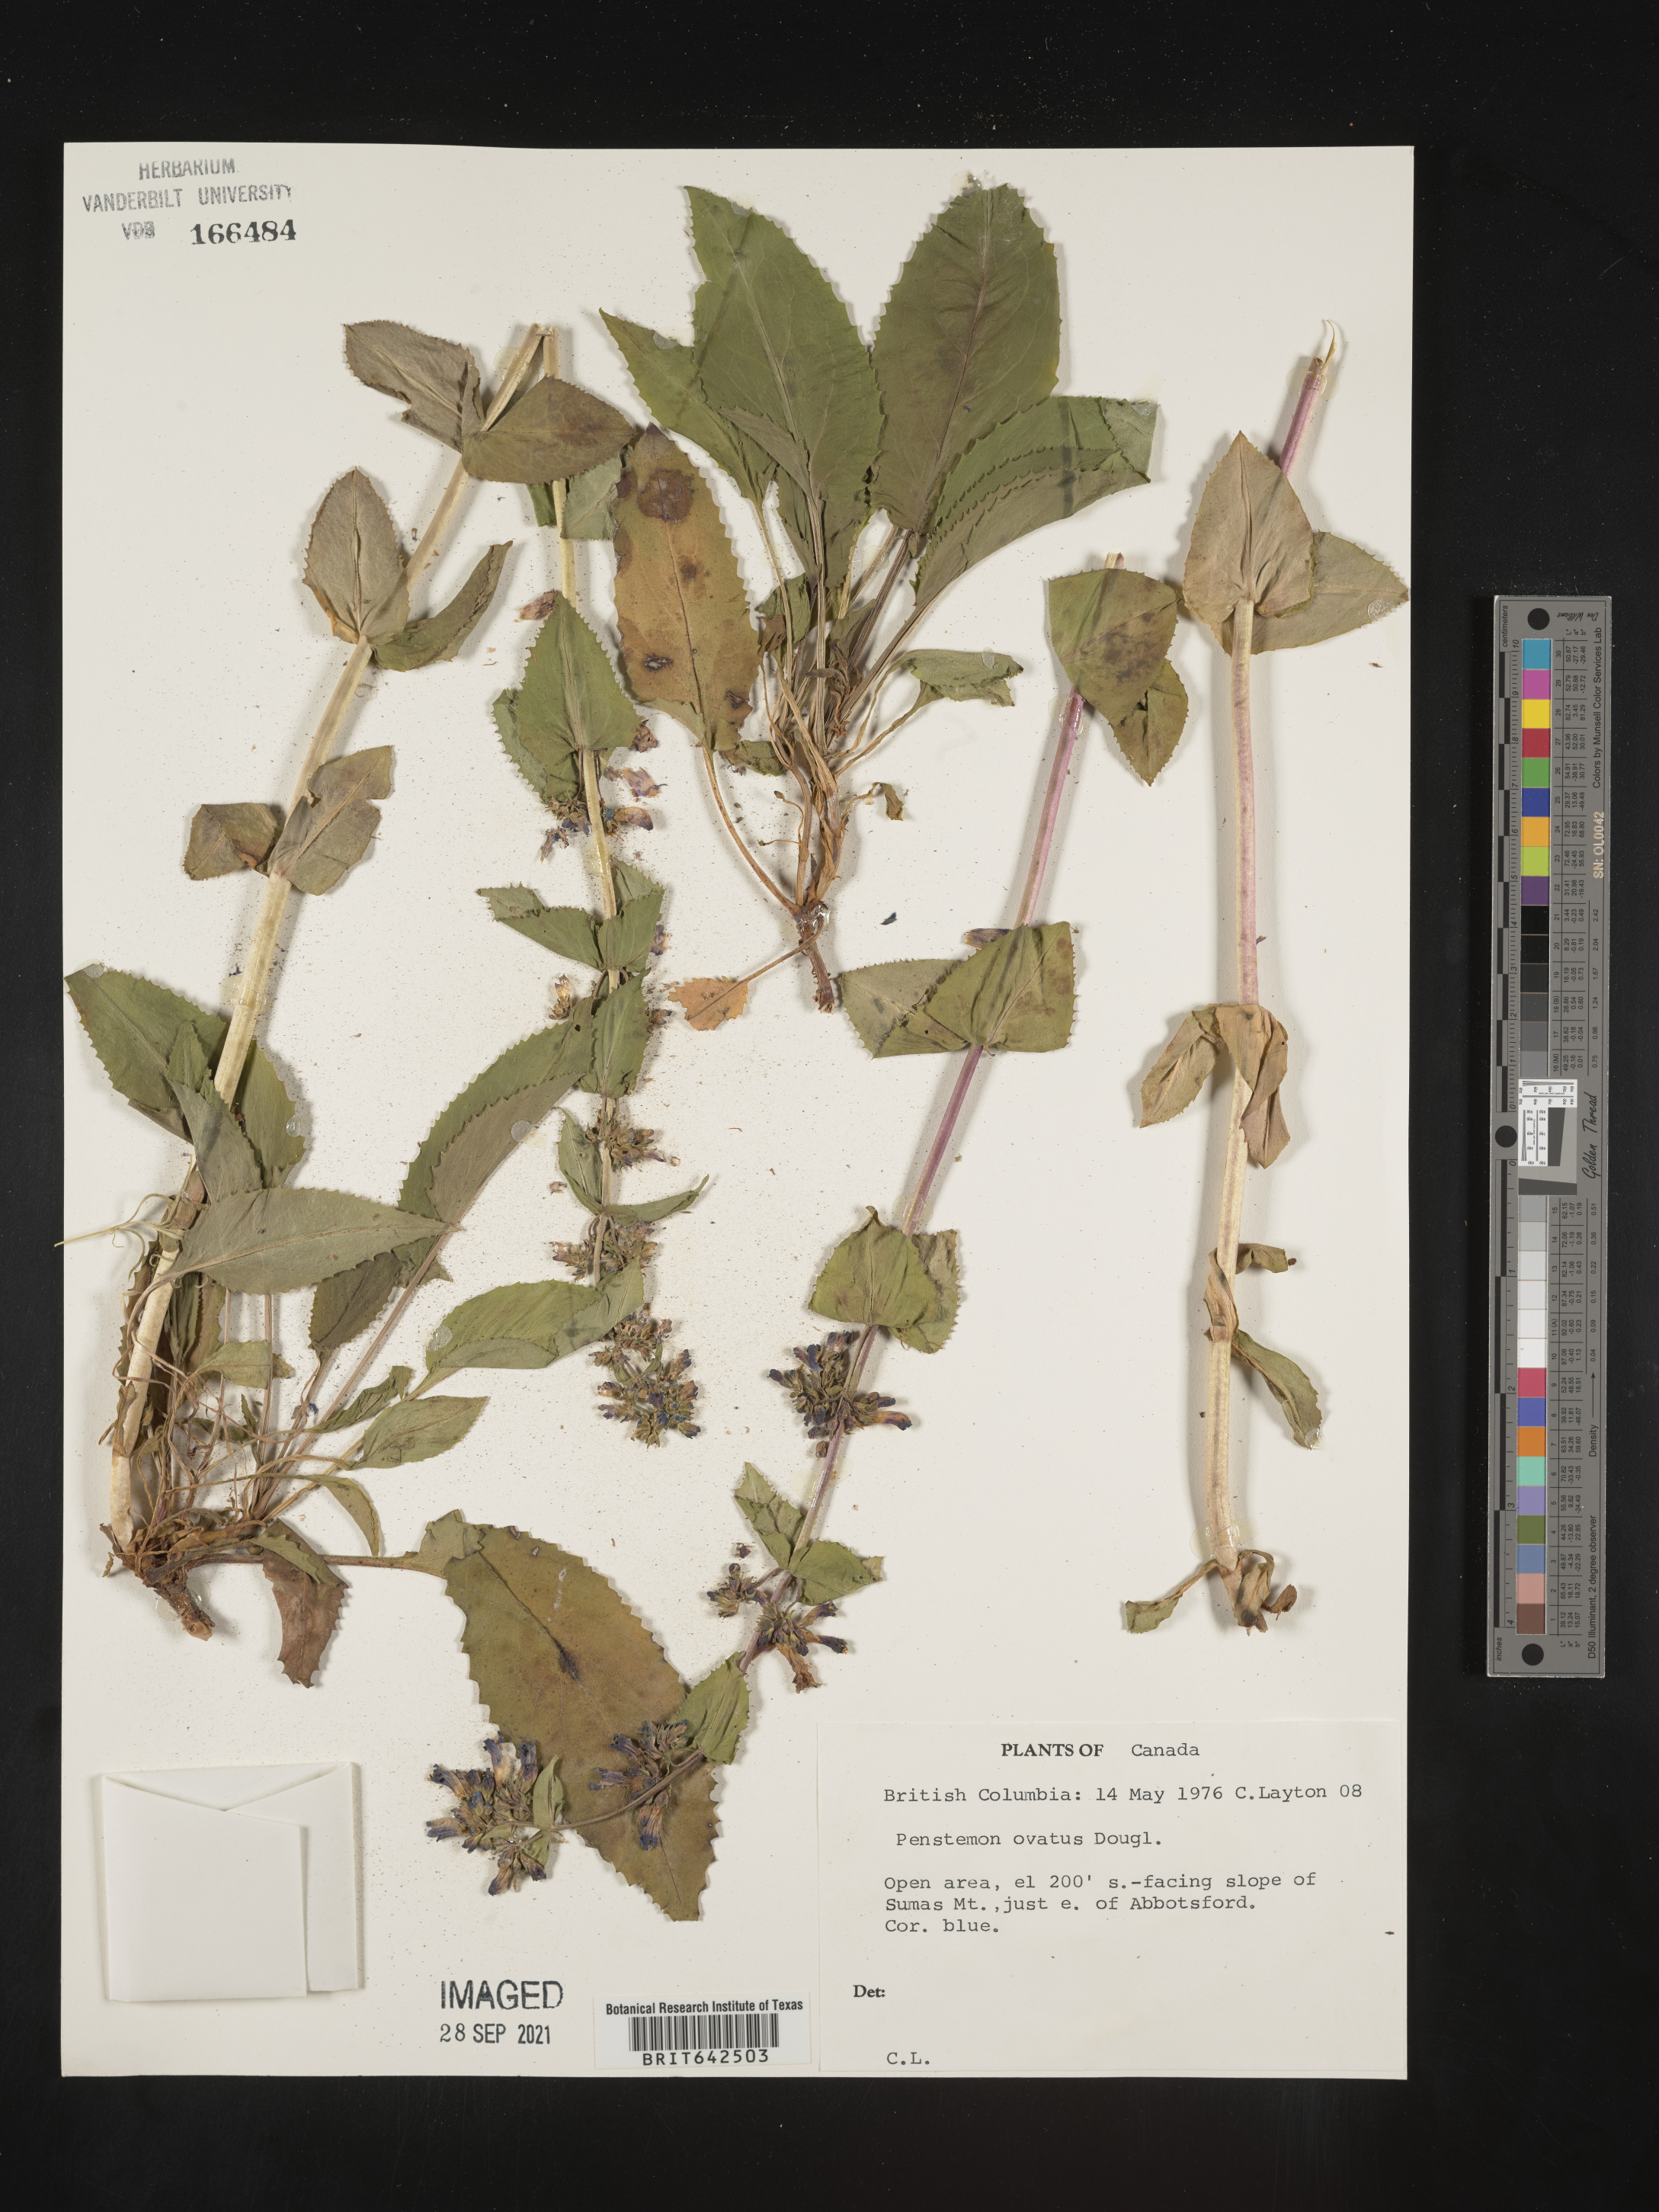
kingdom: Plantae
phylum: Tracheophyta
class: Magnoliopsida
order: Lamiales
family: Plantaginaceae
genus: Penstemon
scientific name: Penstemon
